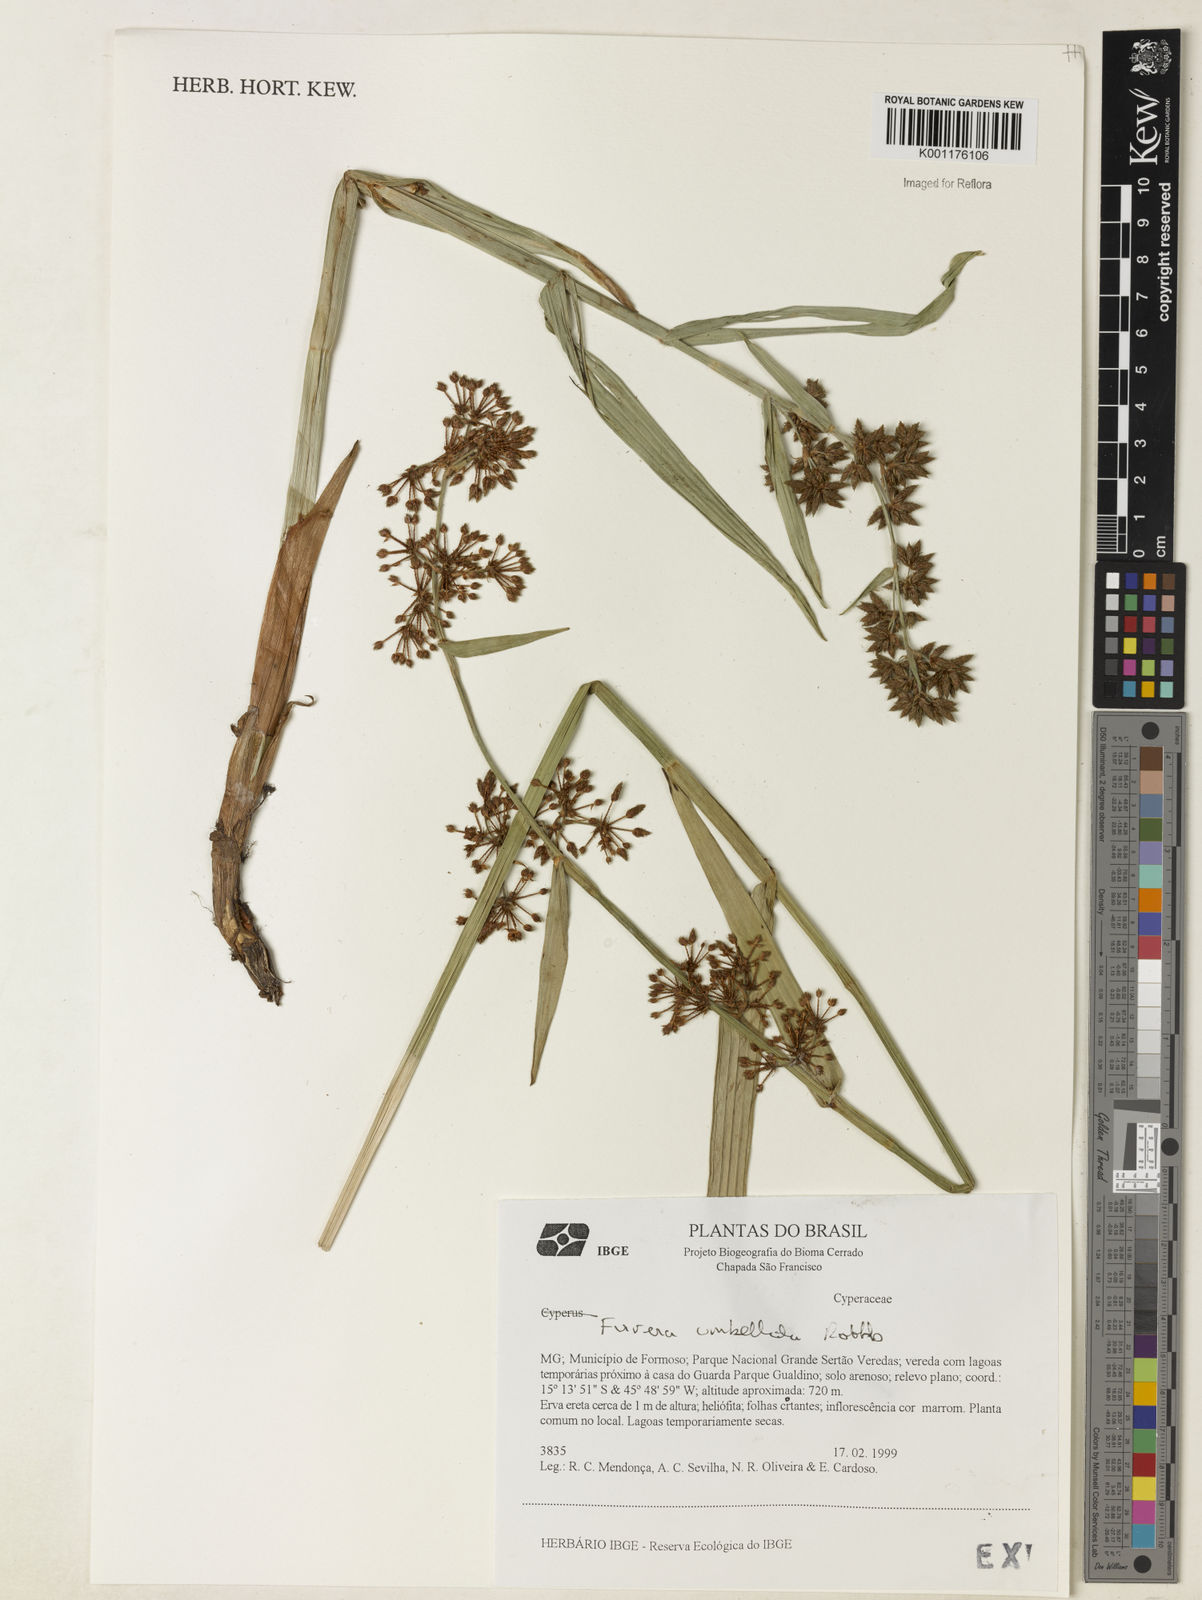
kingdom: Plantae
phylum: Tracheophyta
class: Liliopsida
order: Poales
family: Cyperaceae
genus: Fuirena
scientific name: Fuirena umbellata
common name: Yefen
